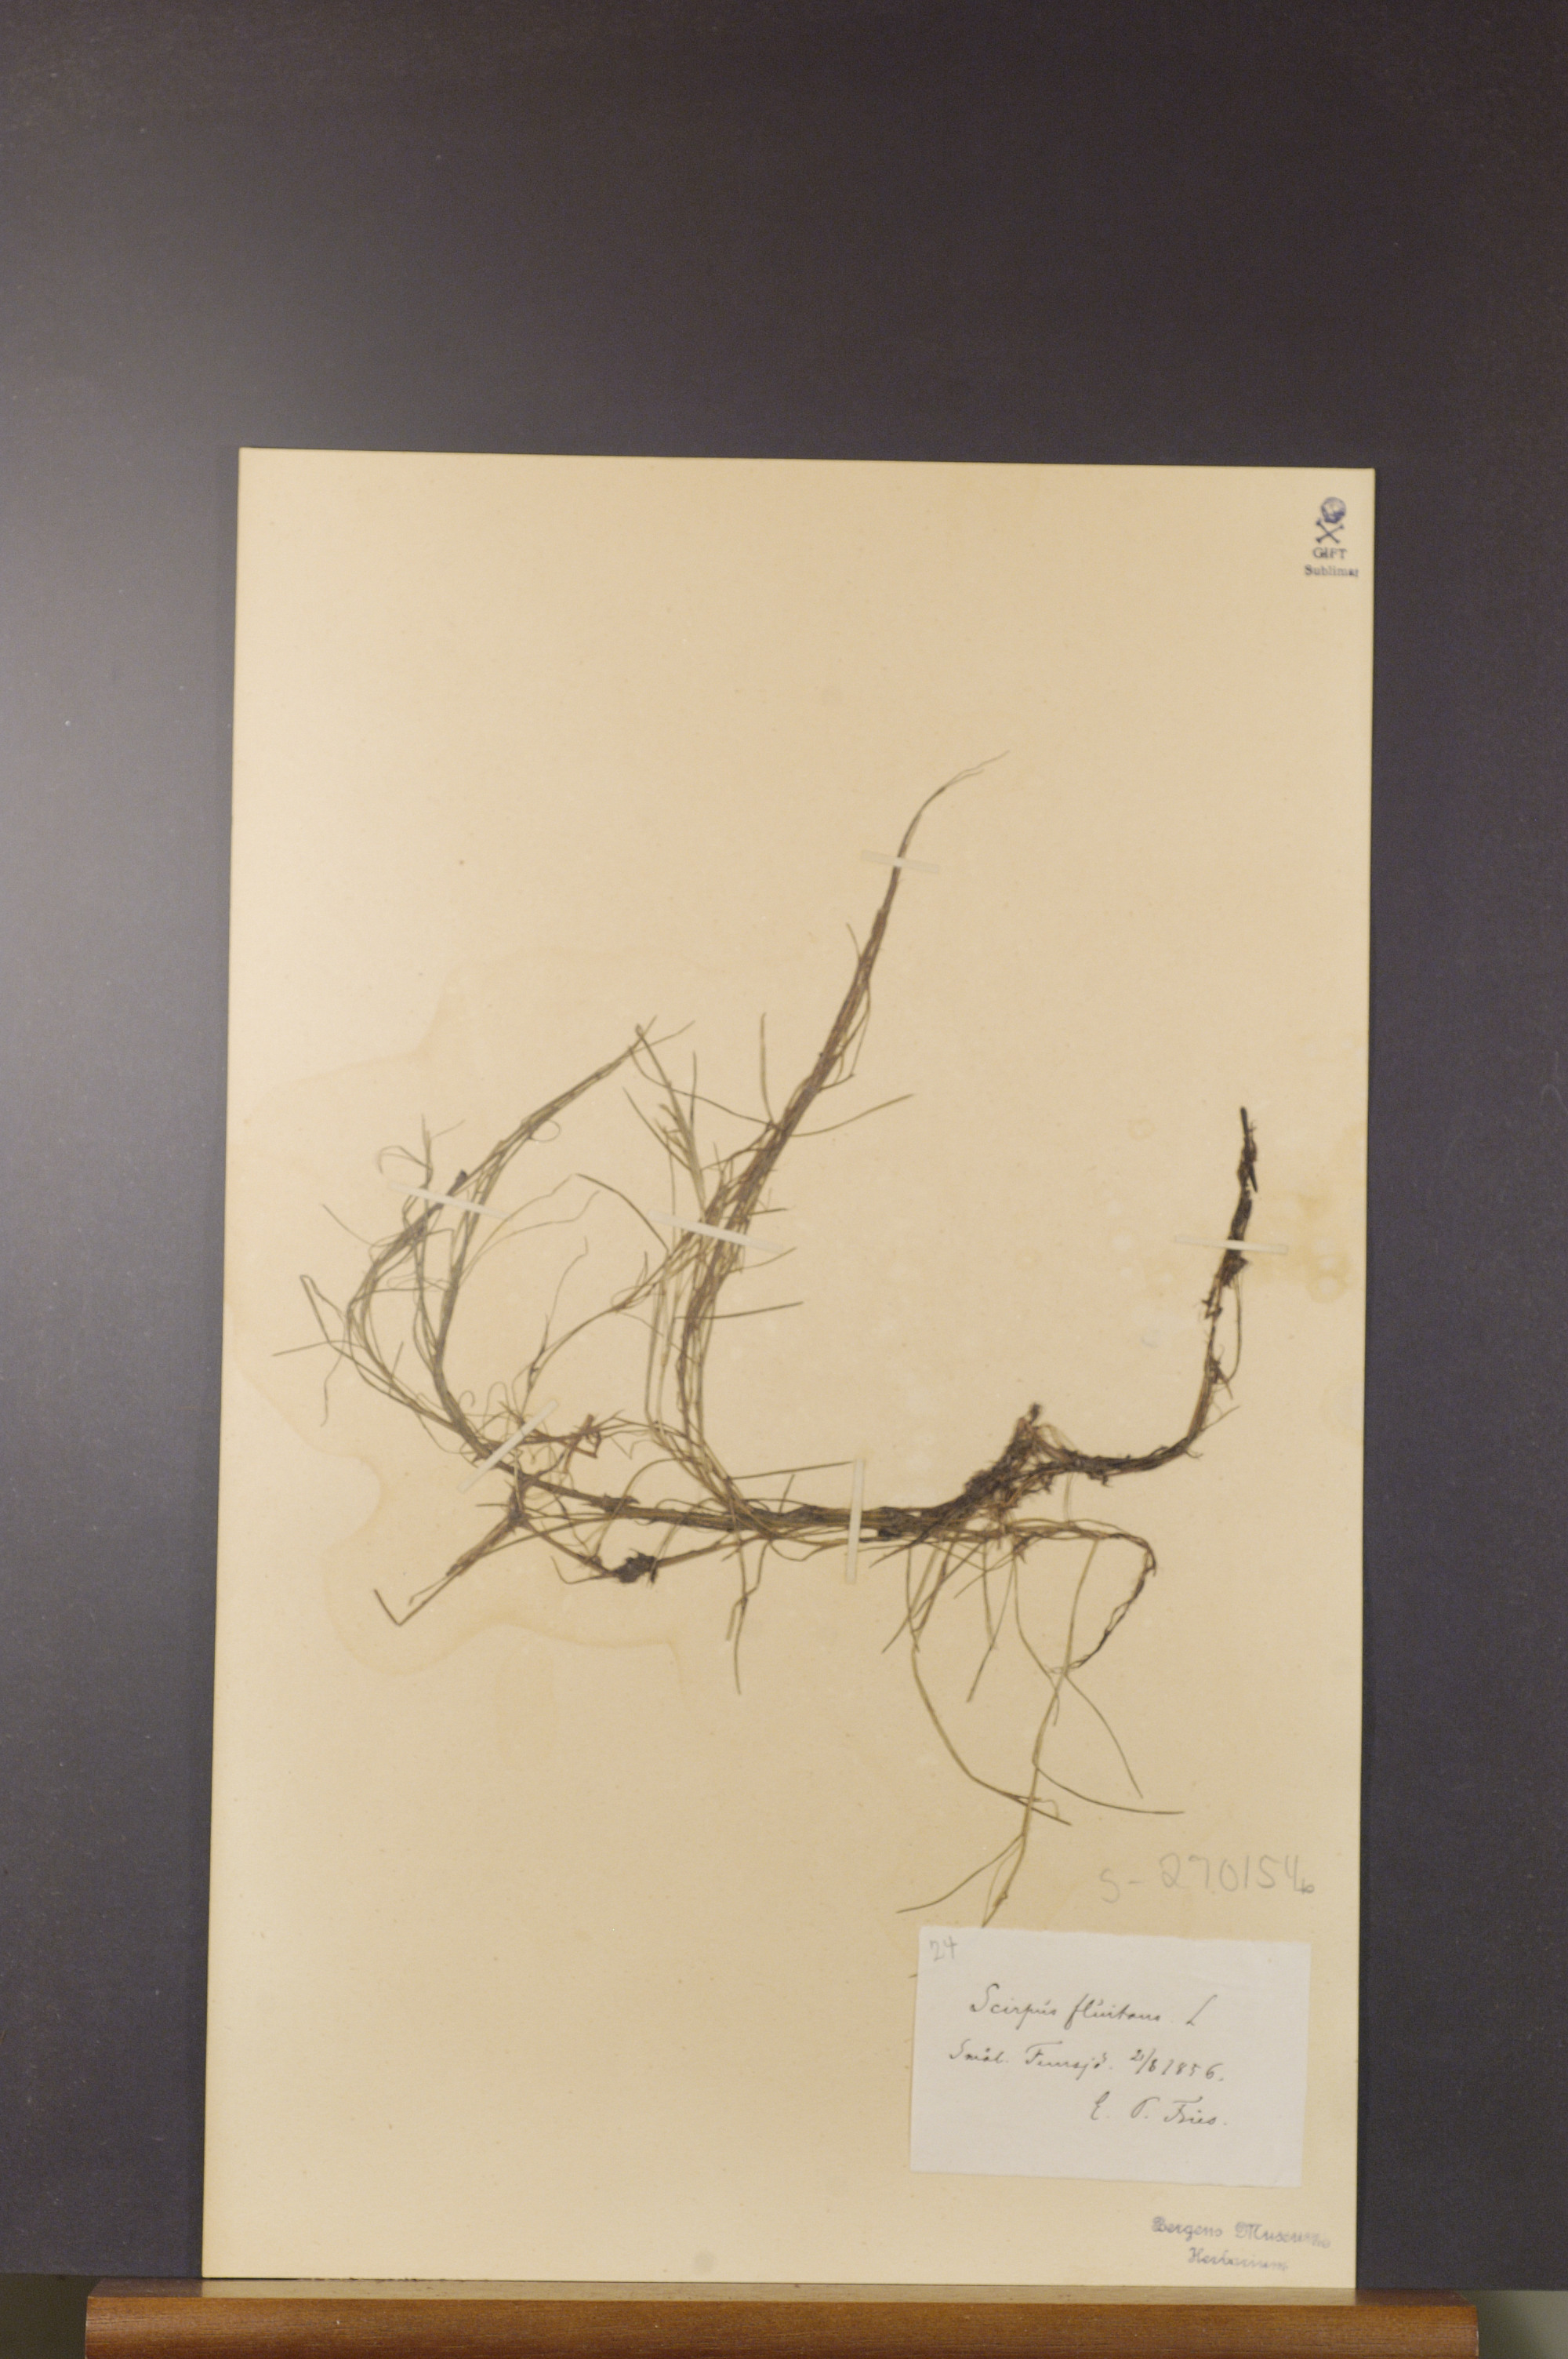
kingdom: Plantae
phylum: Tracheophyta
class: Liliopsida
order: Poales
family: Cyperaceae
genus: Isolepis
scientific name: Isolepis fluitans
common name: Floating club-rush
